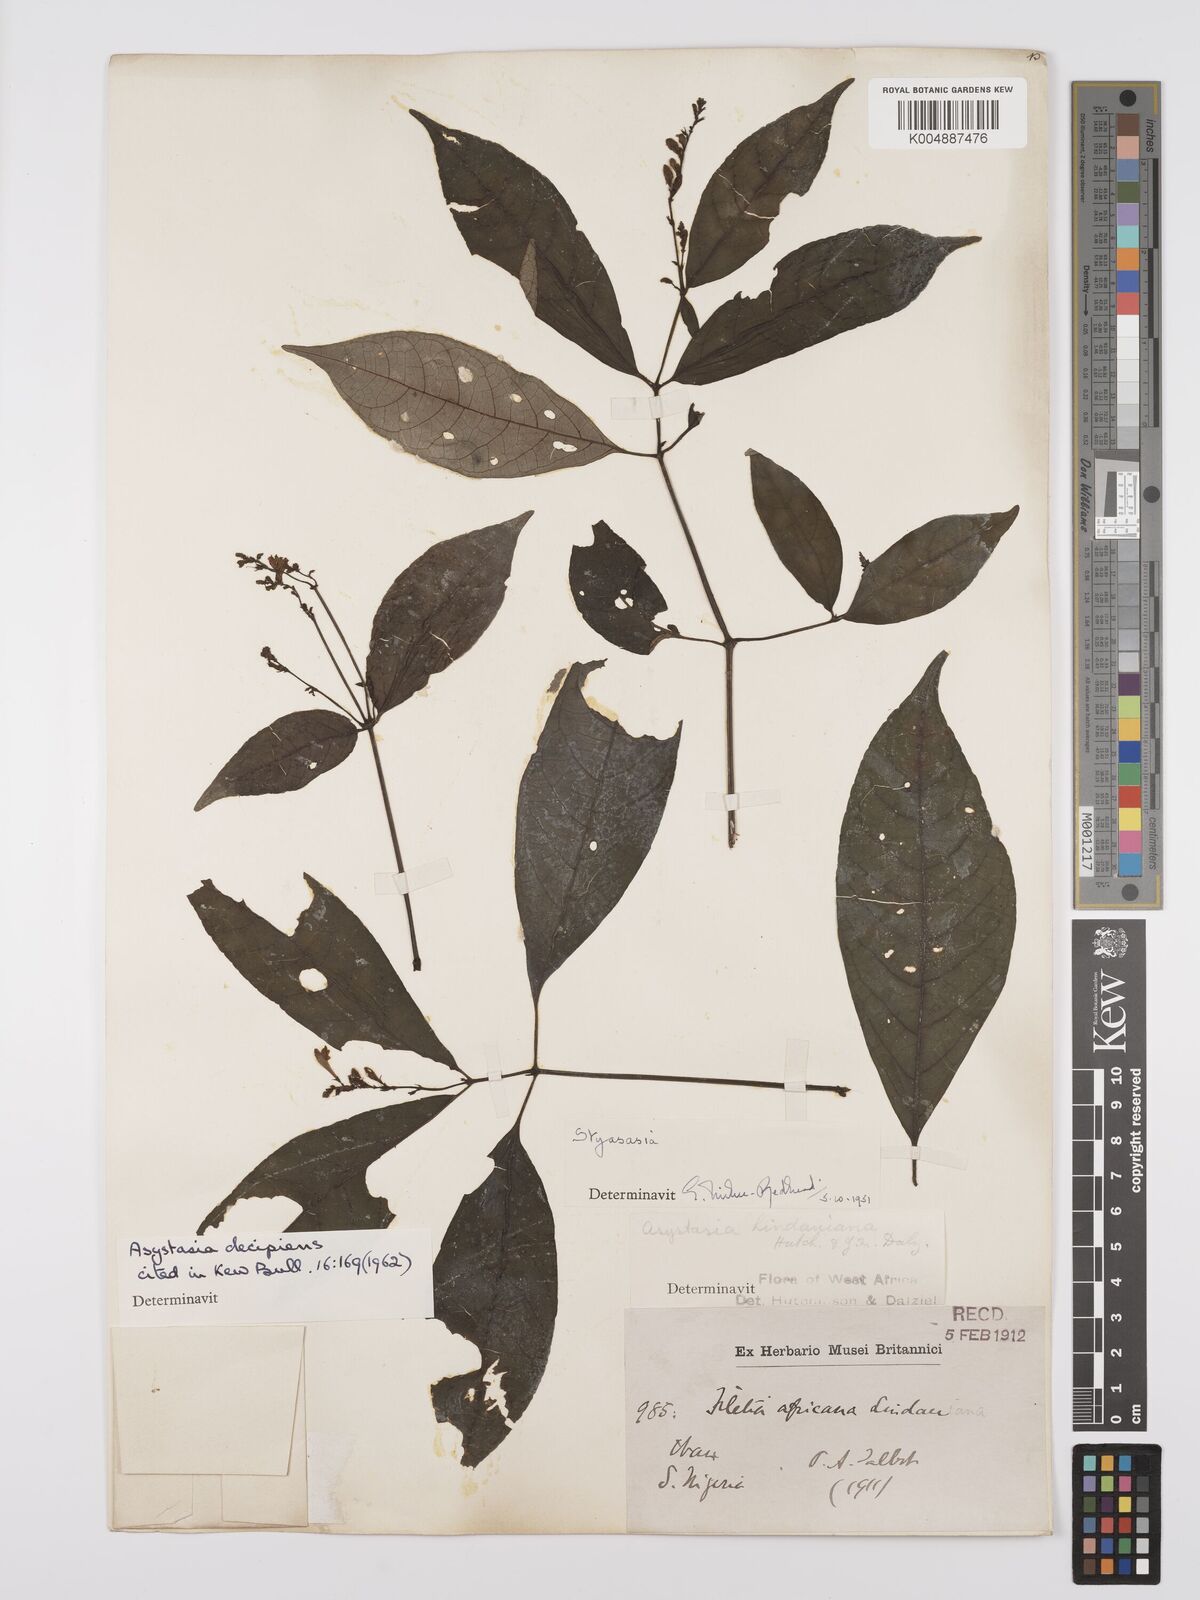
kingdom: Plantae
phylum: Tracheophyta
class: Magnoliopsida
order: Lamiales
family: Acanthaceae
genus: Asystasia
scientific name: Asystasia decipiens
